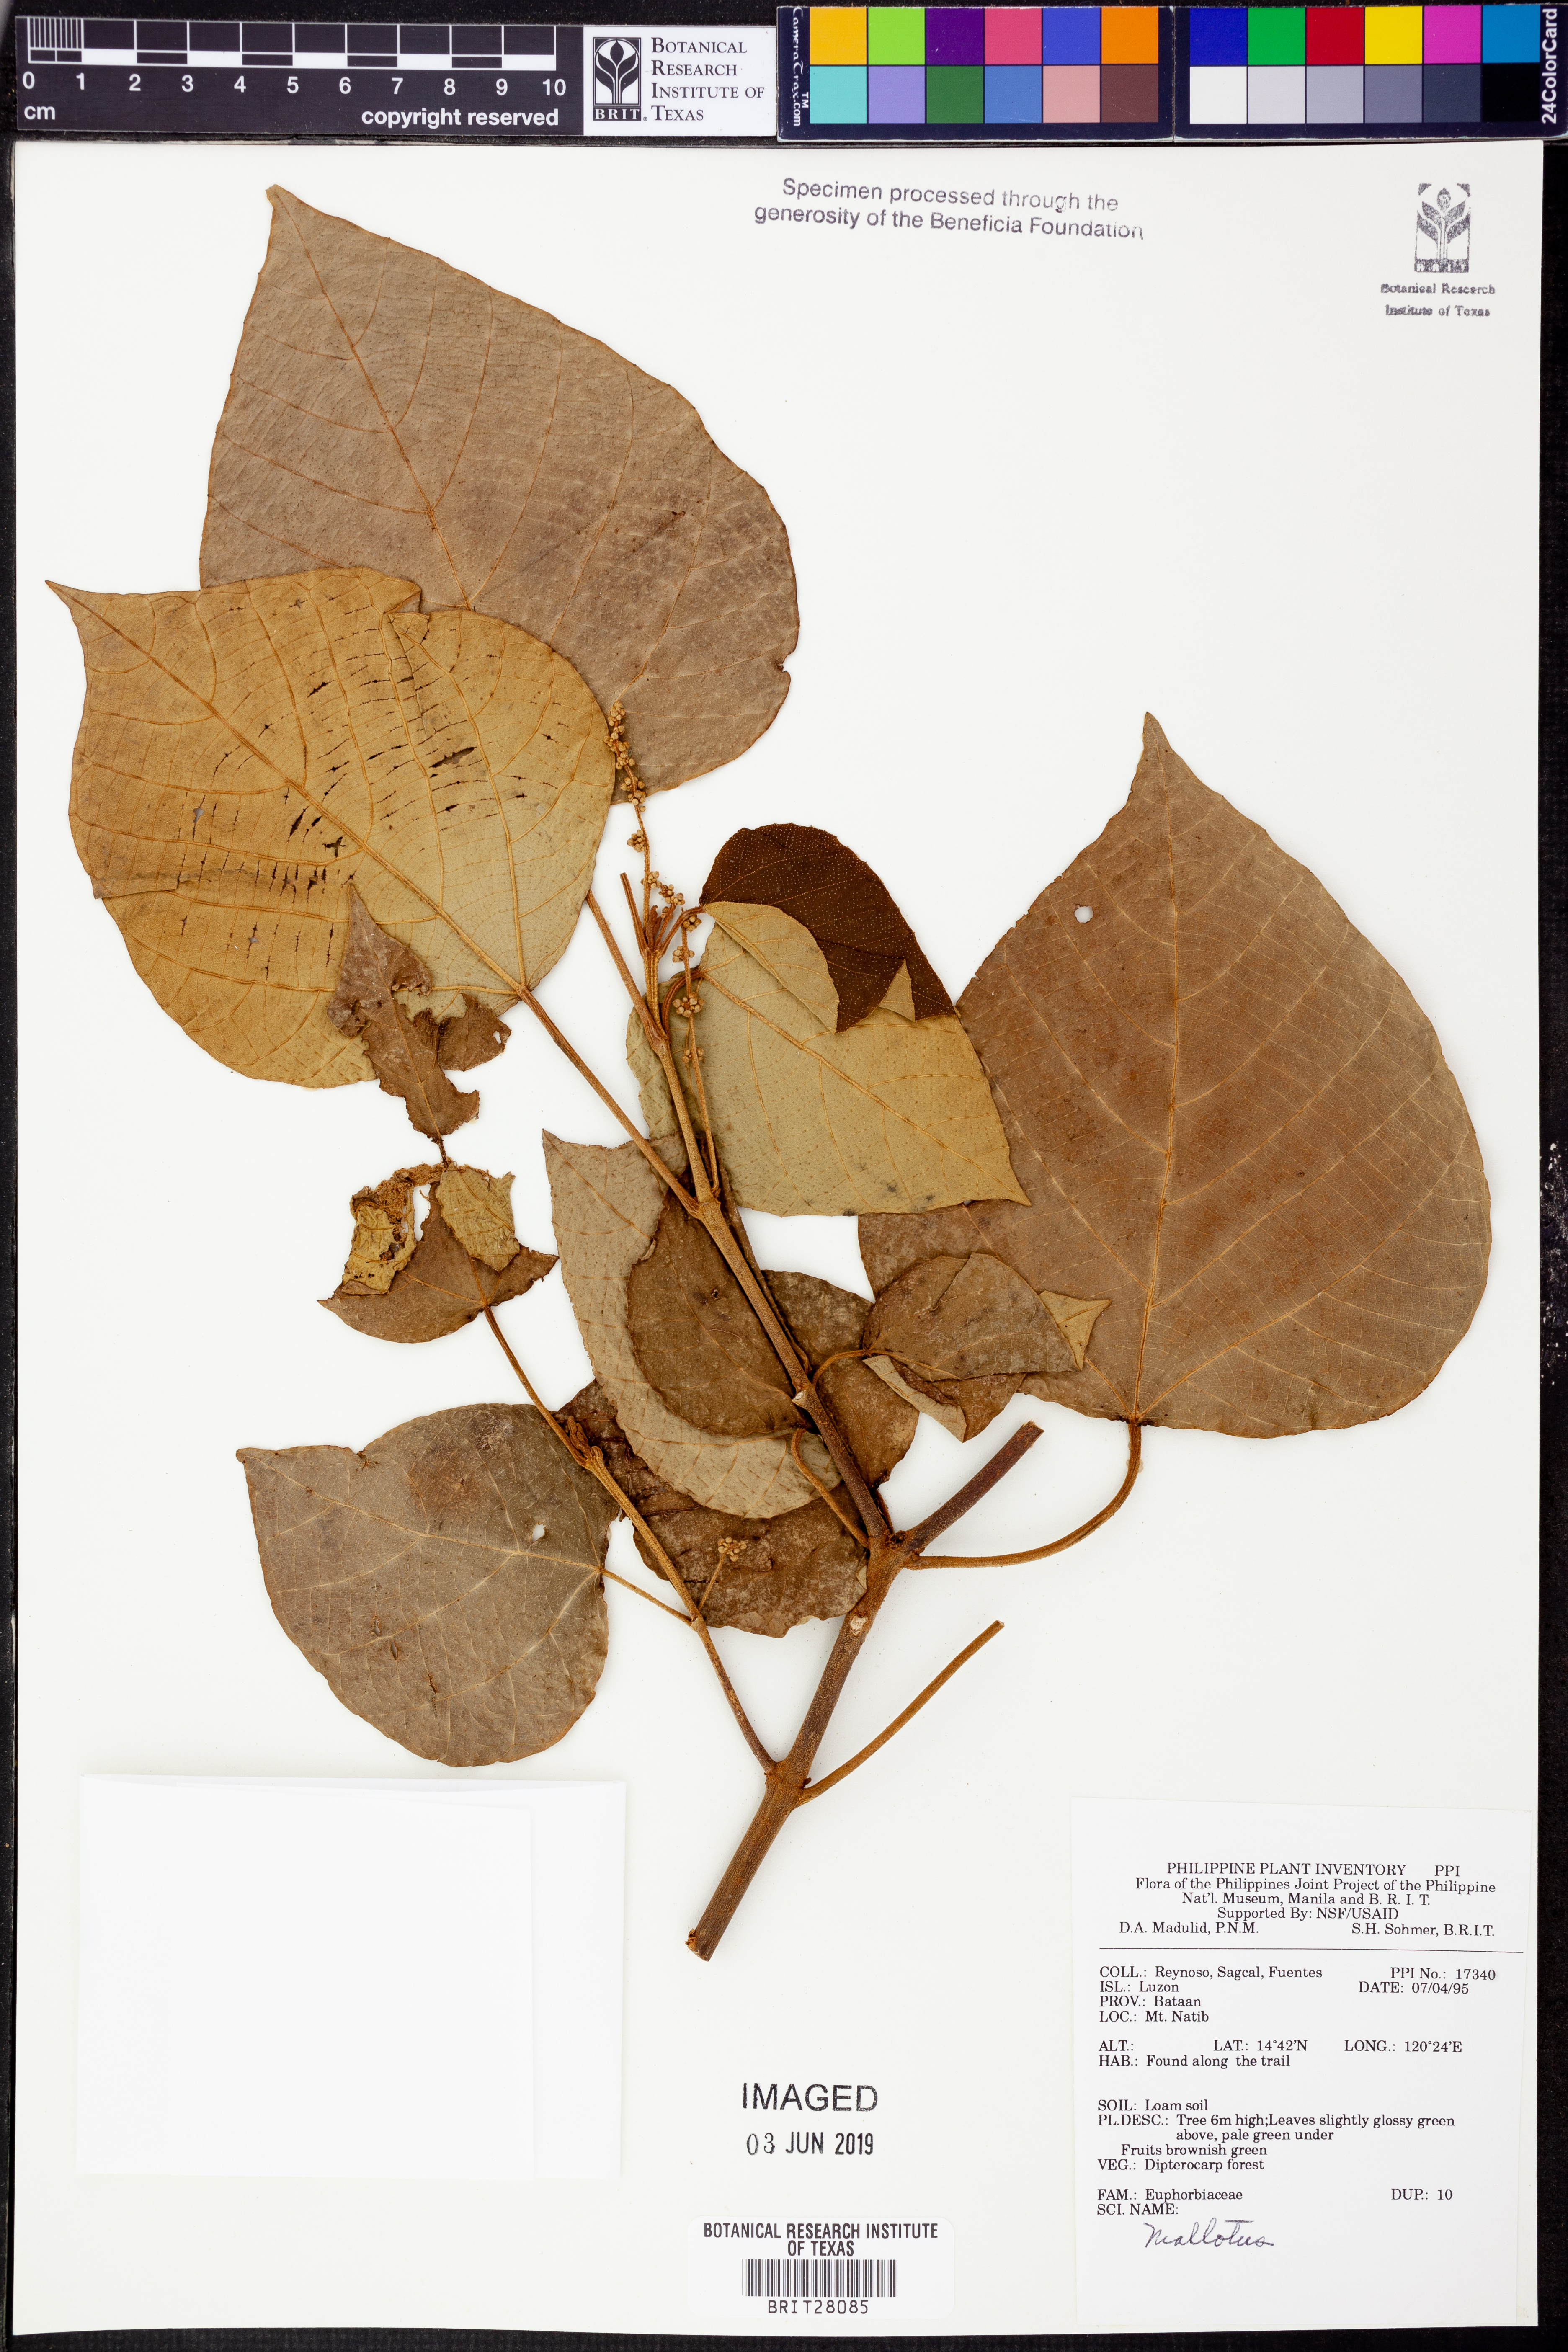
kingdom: Plantae
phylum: Tracheophyta
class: Magnoliopsida
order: Malpighiales
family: Euphorbiaceae
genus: Mallotus
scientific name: Mallotus
